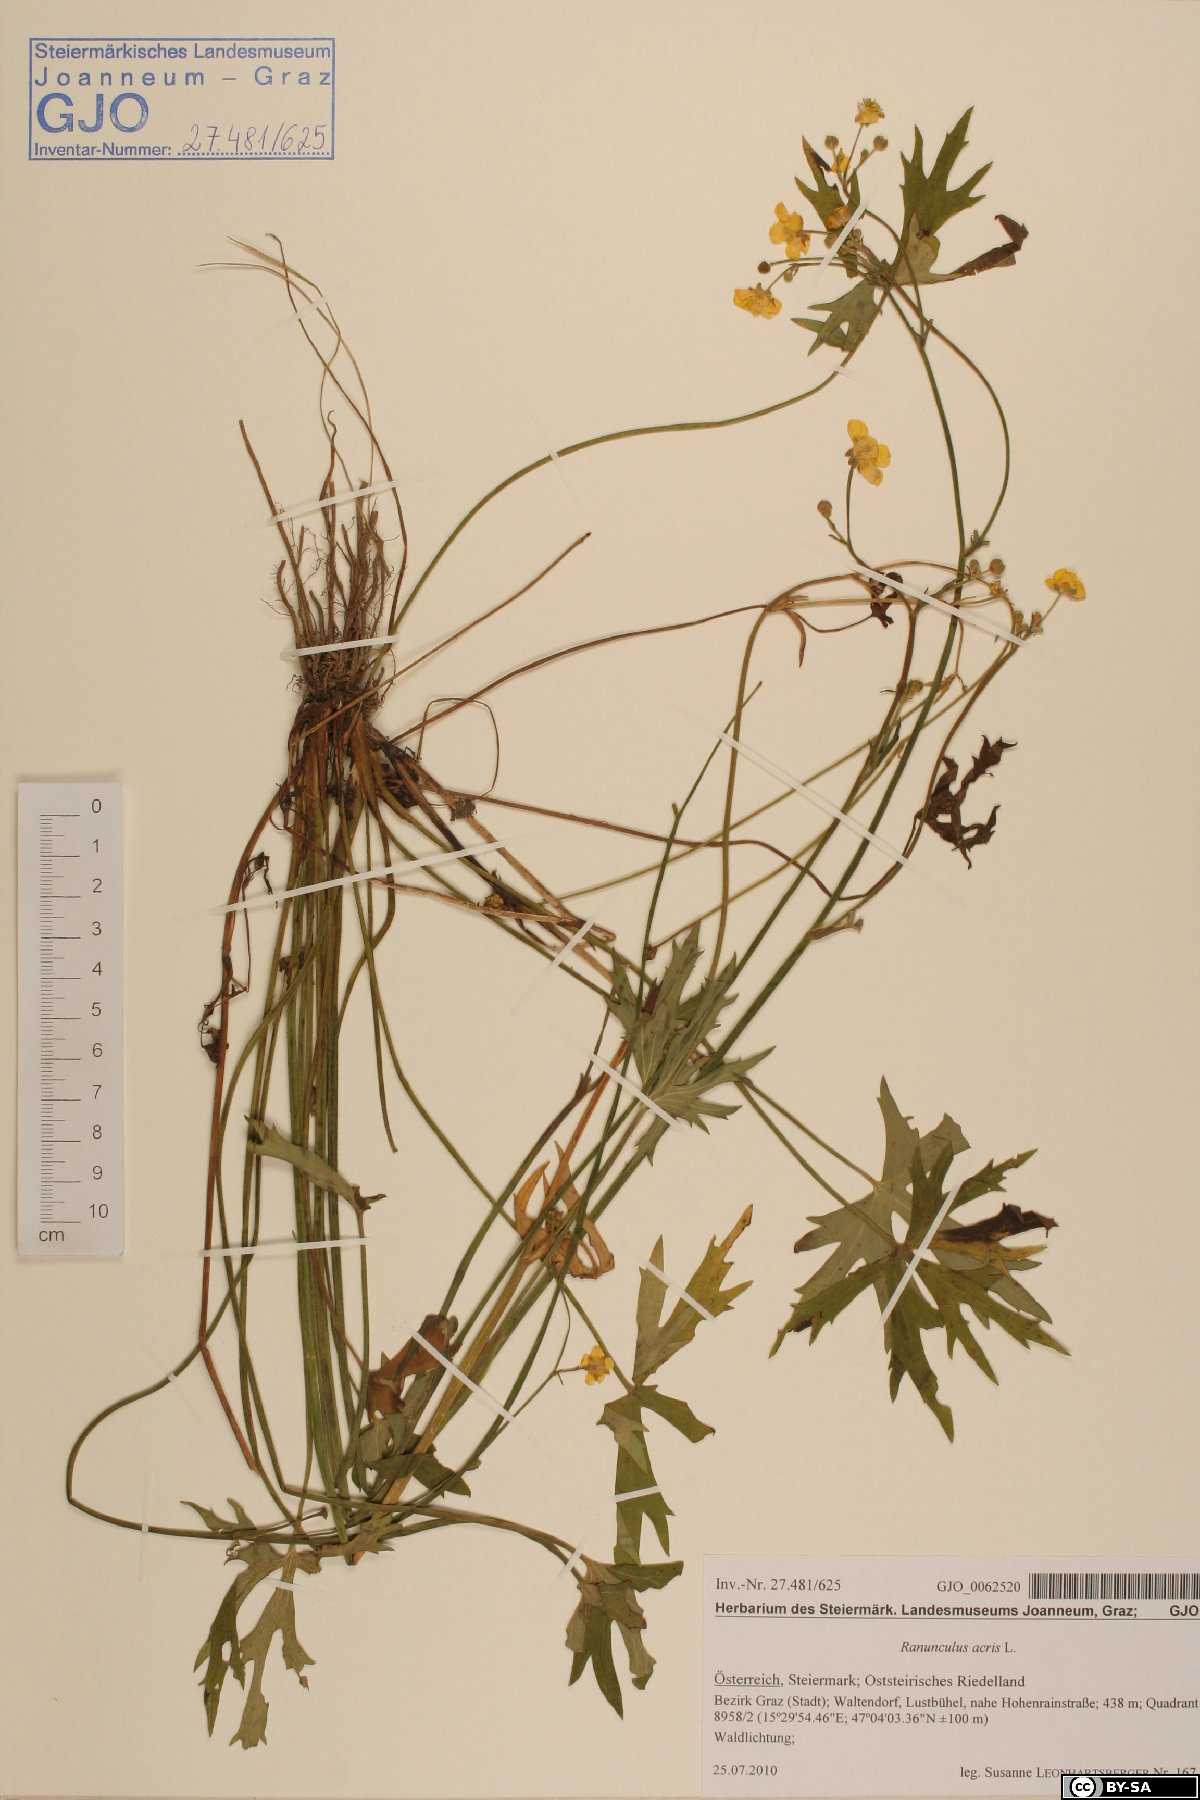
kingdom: Plantae
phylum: Tracheophyta
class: Magnoliopsida
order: Ranunculales
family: Ranunculaceae
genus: Ranunculus
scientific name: Ranunculus acris
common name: Meadow buttercup
